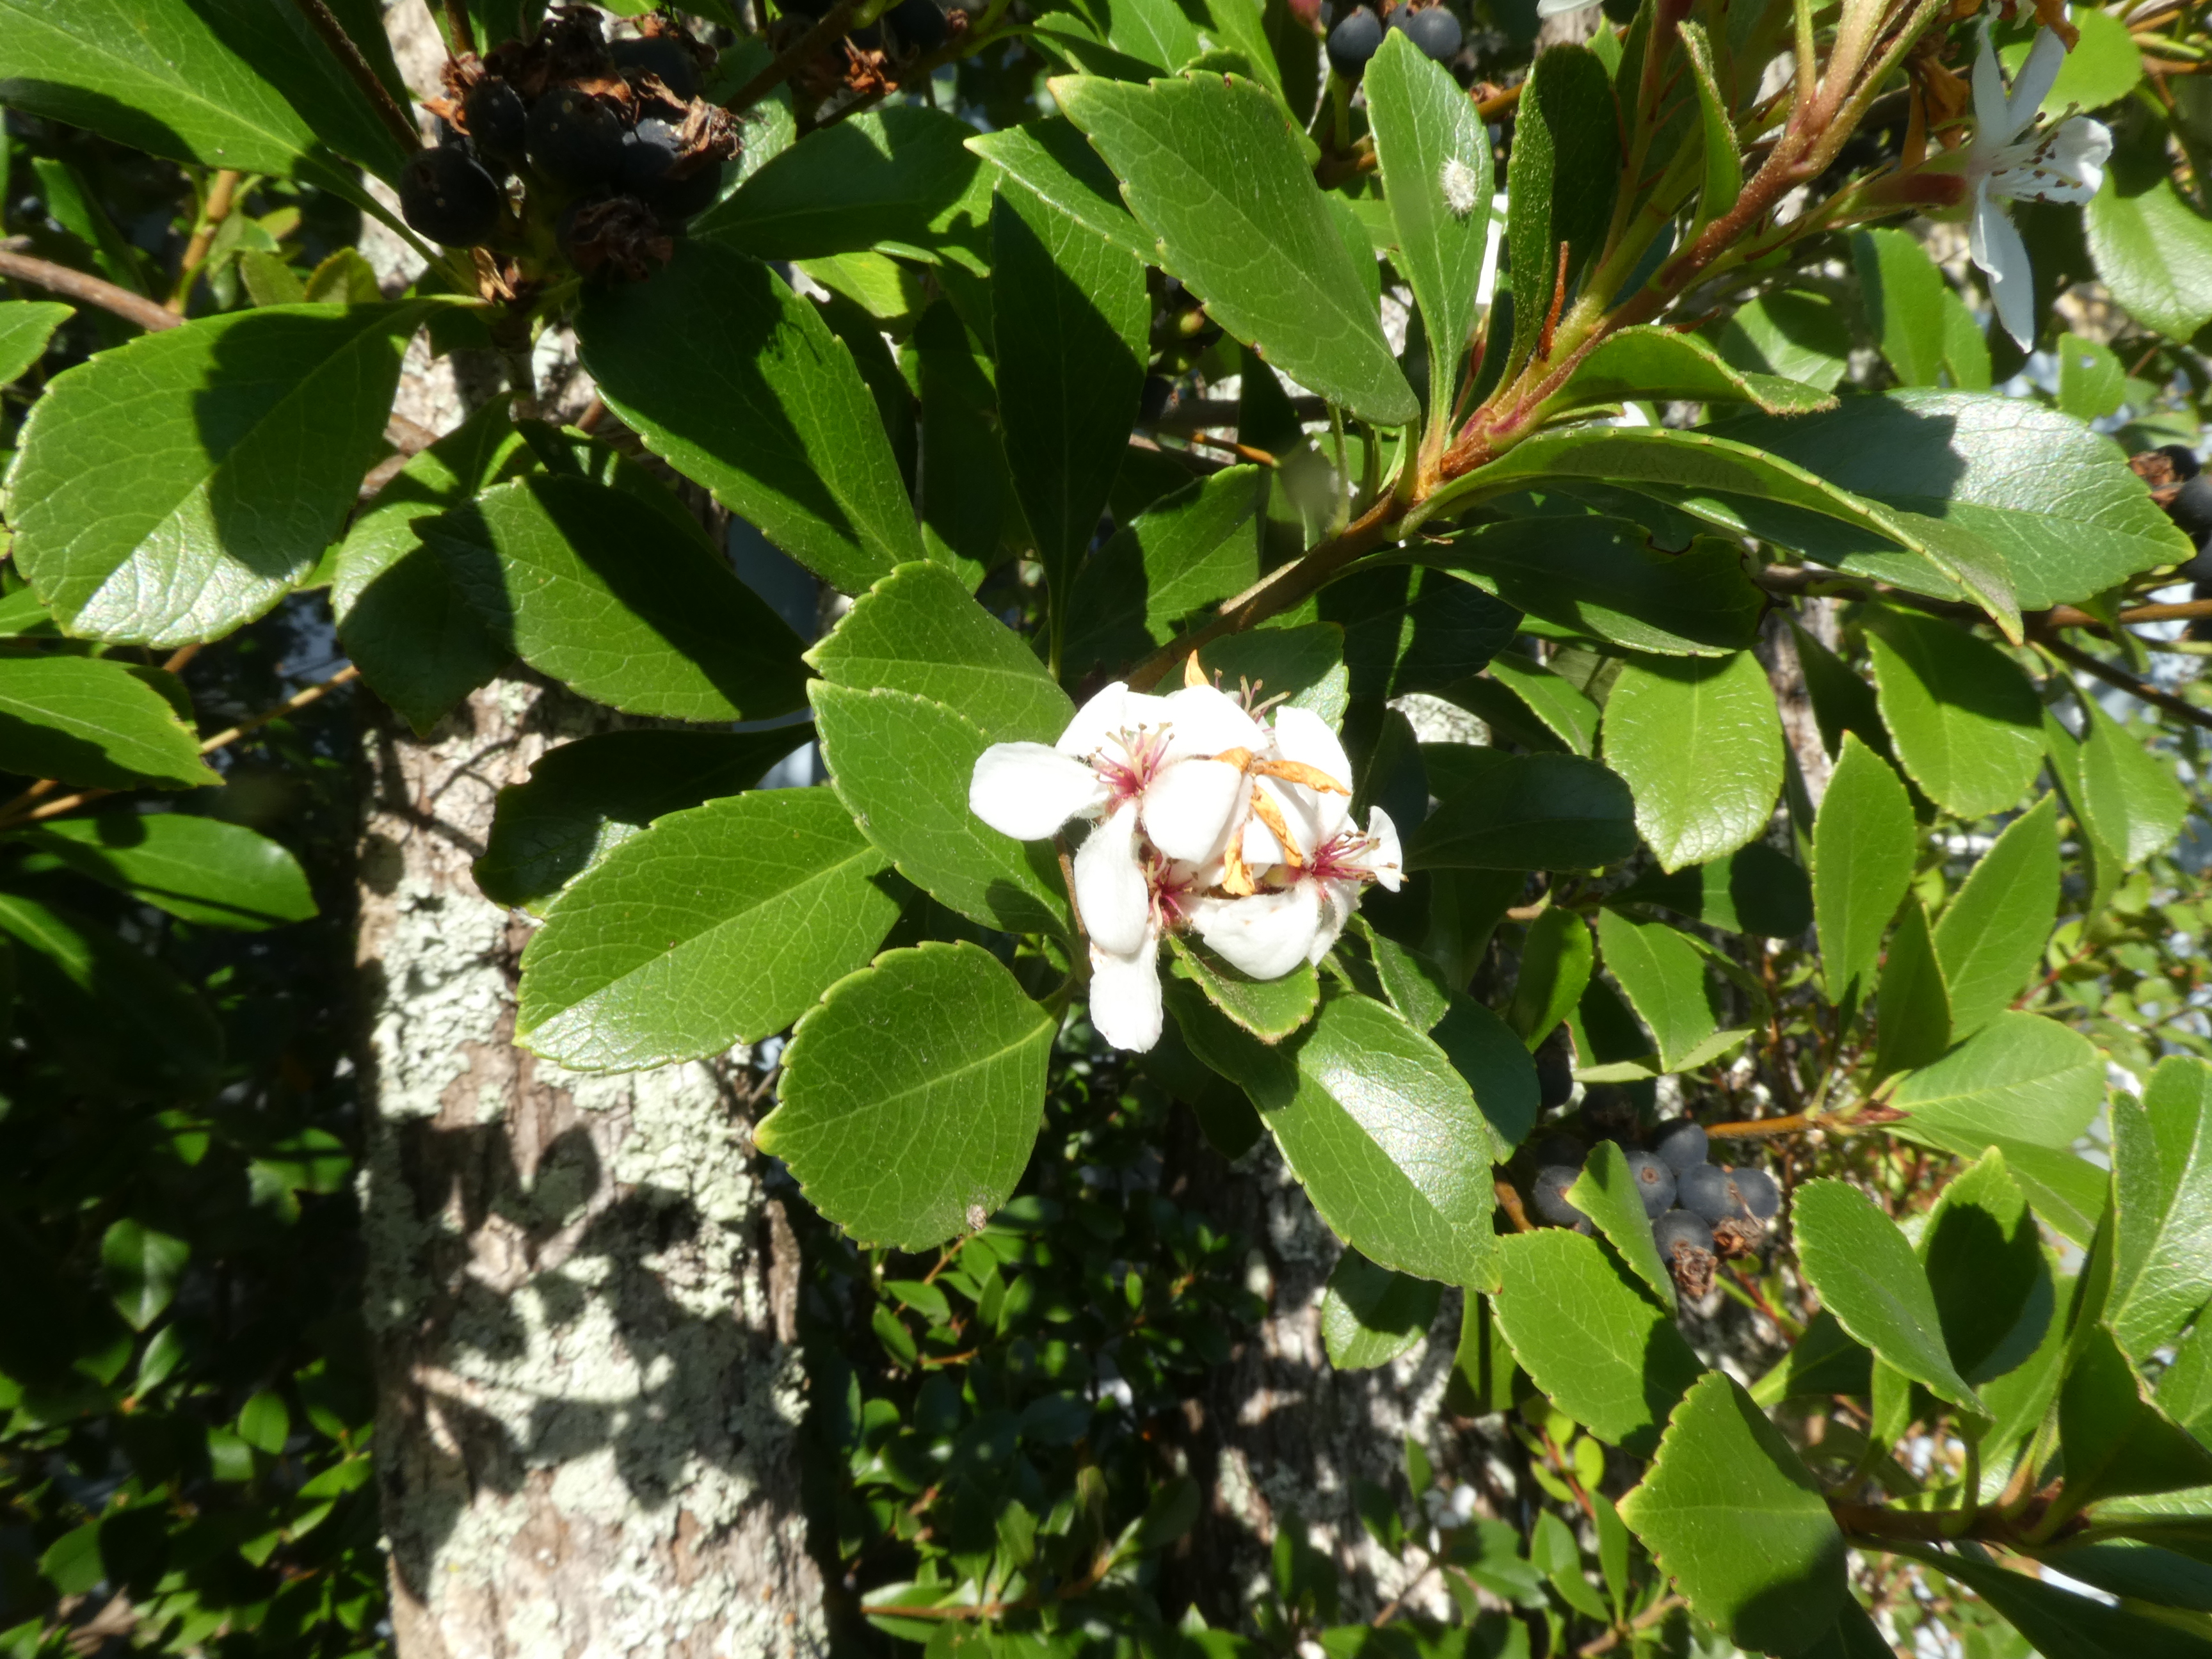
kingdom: Plantae
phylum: Tracheophyta
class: Magnoliopsida
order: Rosales
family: Rosaceae
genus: Rhaphiolepis
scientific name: Rhaphiolepis indica
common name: India-hawthorn
